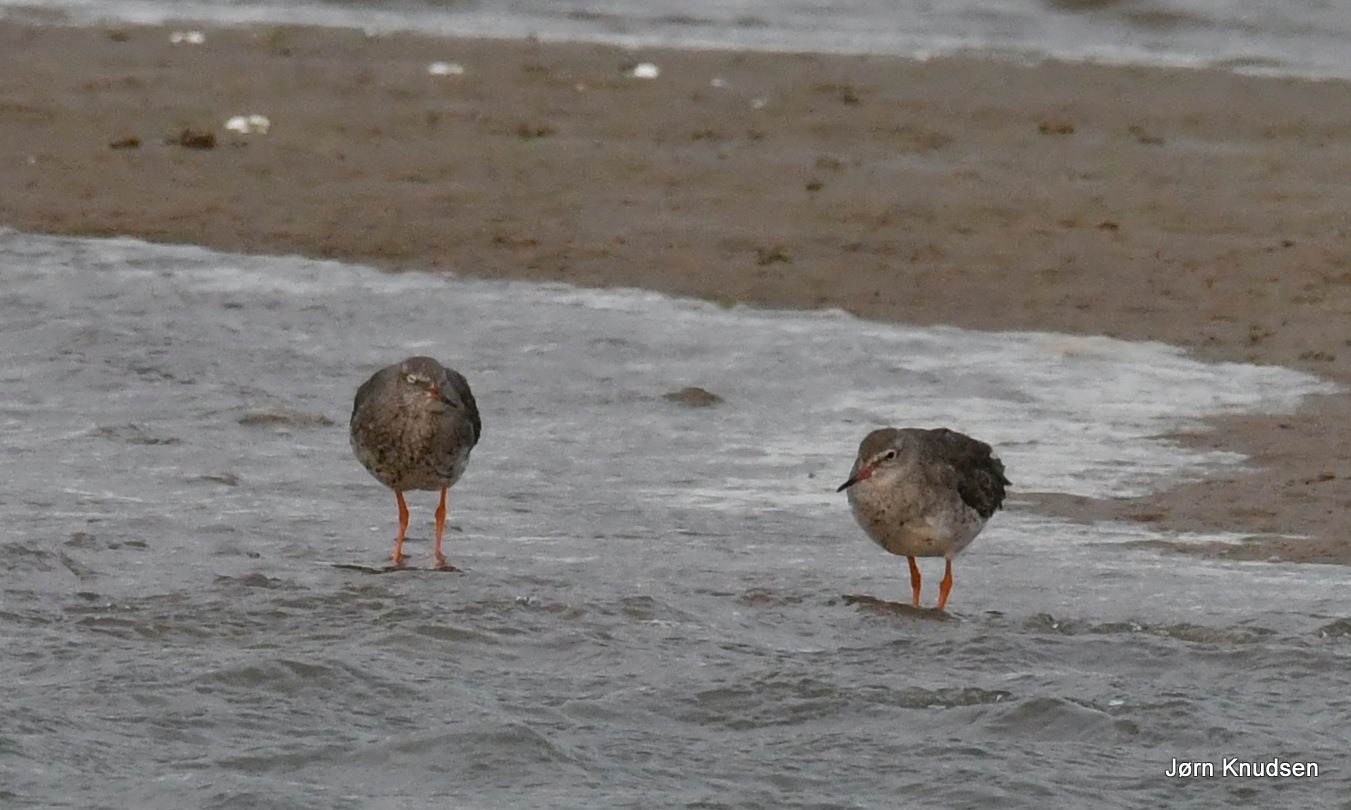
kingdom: Animalia
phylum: Chordata
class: Aves
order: Charadriiformes
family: Scolopacidae
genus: Tringa
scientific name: Tringa totanus
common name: Rødben
